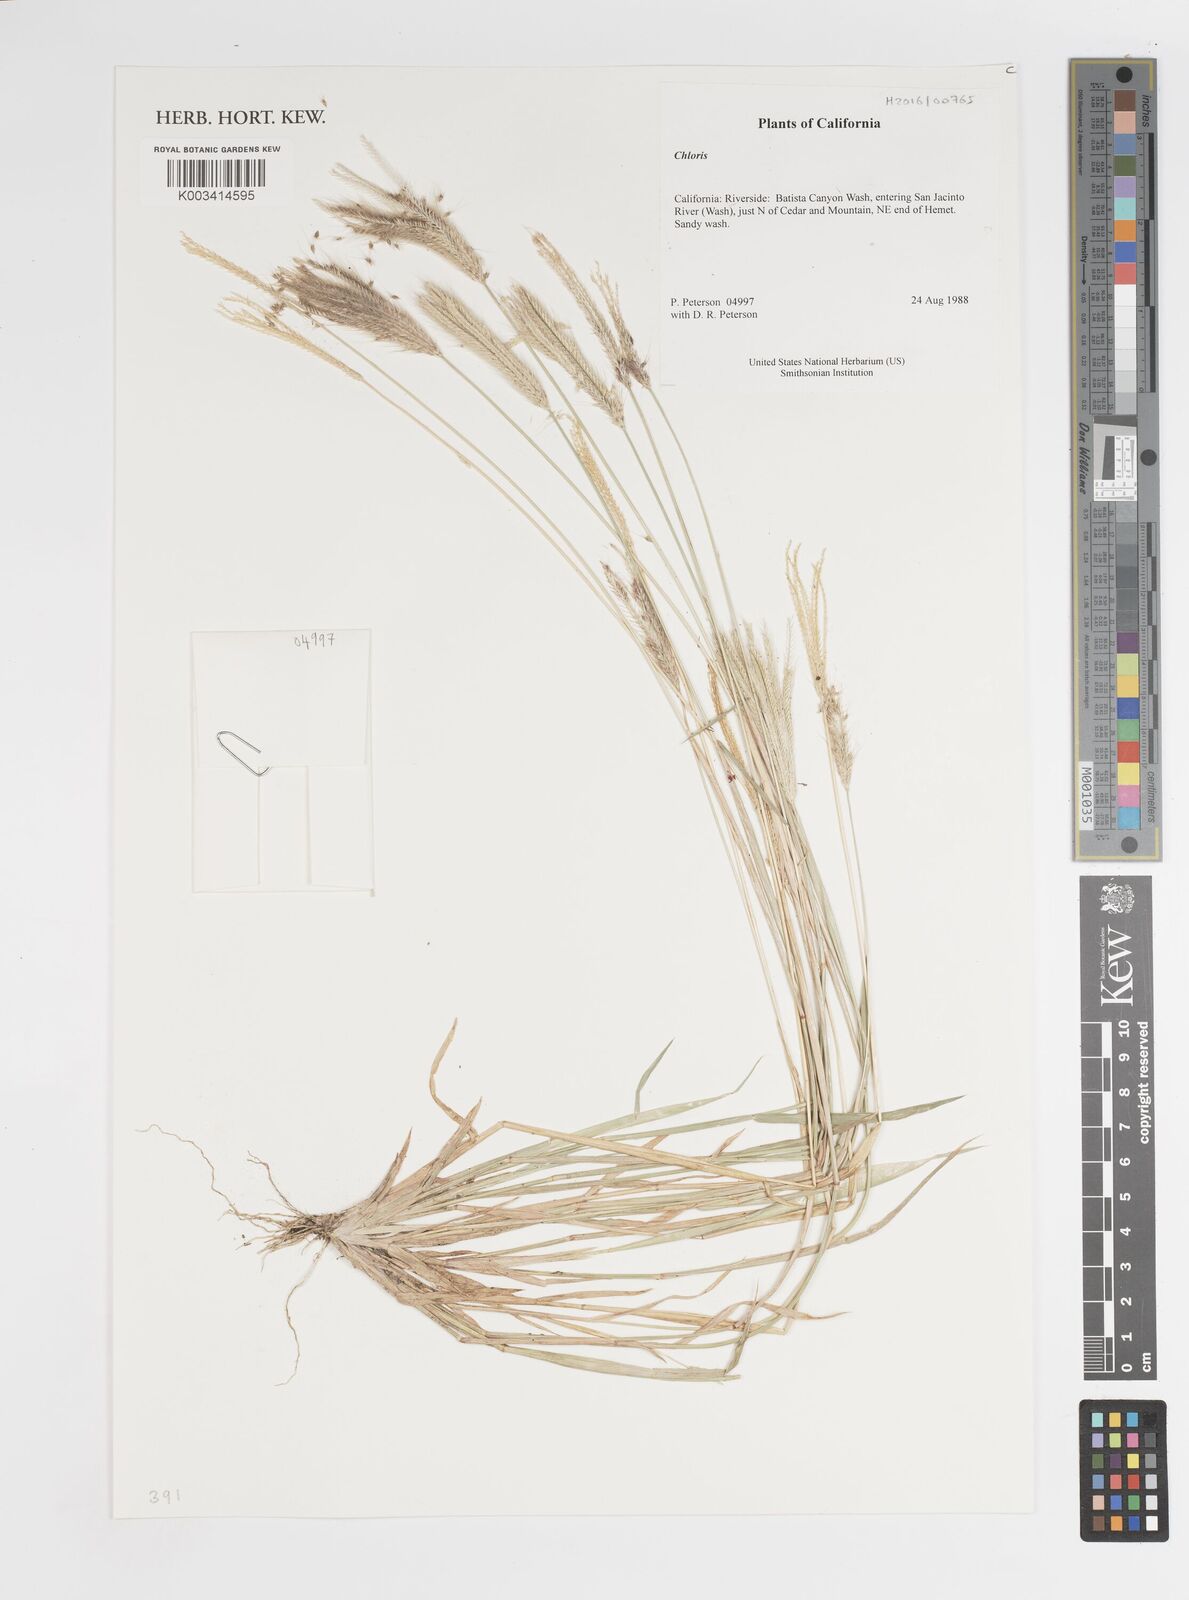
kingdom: Plantae
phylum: Tracheophyta
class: Liliopsida
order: Poales
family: Poaceae
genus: Chloris
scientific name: Chloris
